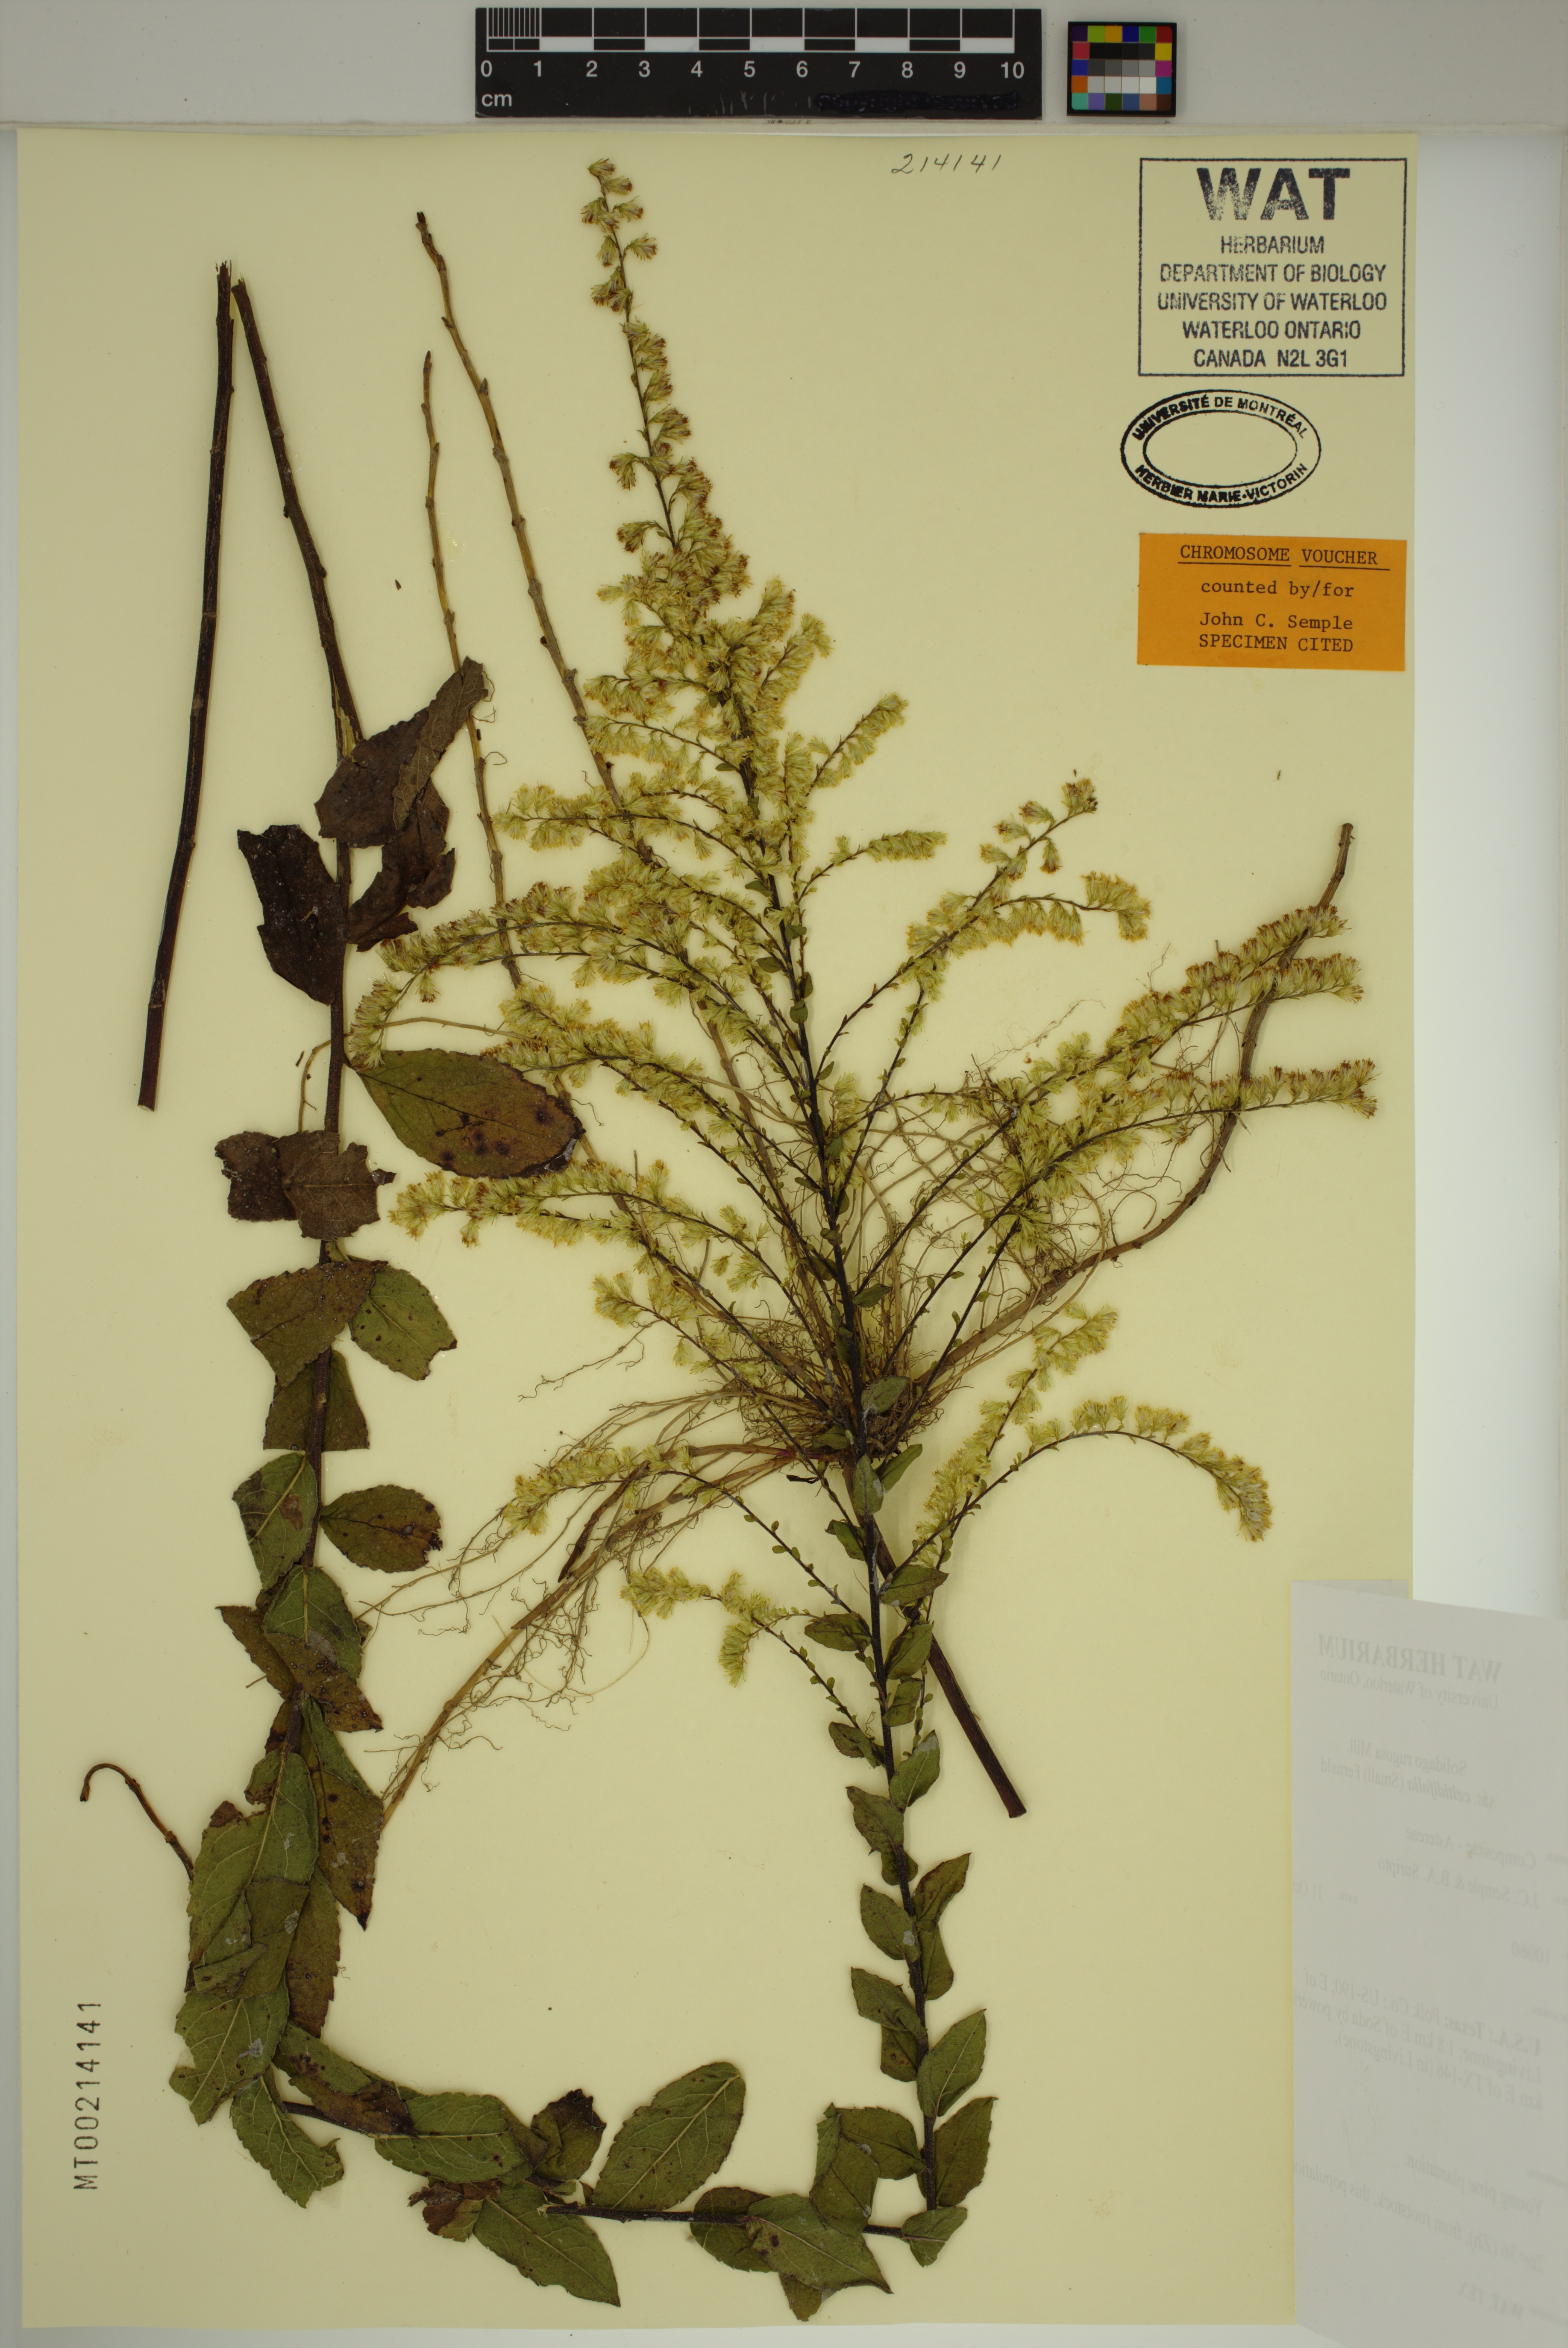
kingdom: Plantae
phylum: Tracheophyta
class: Magnoliopsida
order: Asterales
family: Asteraceae
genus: Solidago
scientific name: Solidago rugosa
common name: Rough-stemmed goldenrod
